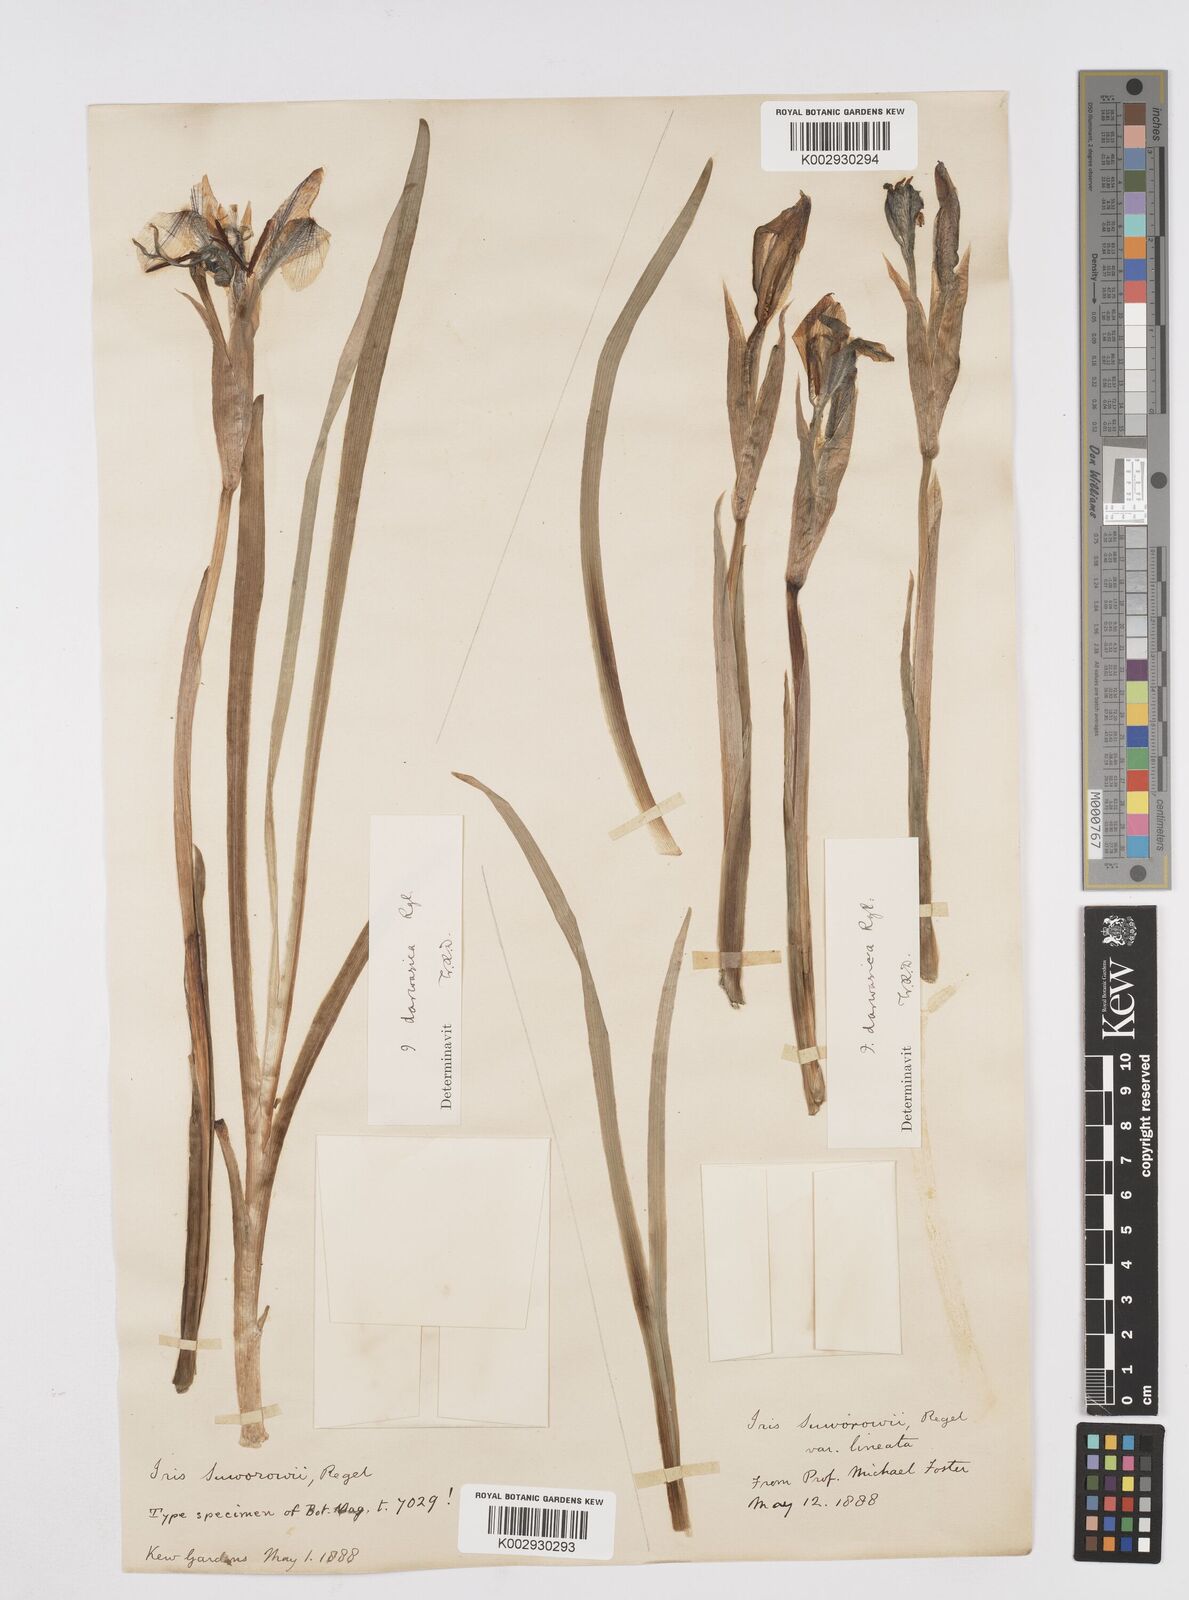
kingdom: Plantae
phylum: Tracheophyta
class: Liliopsida
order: Asparagales
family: Iridaceae
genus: Iris
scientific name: Iris darwasica
